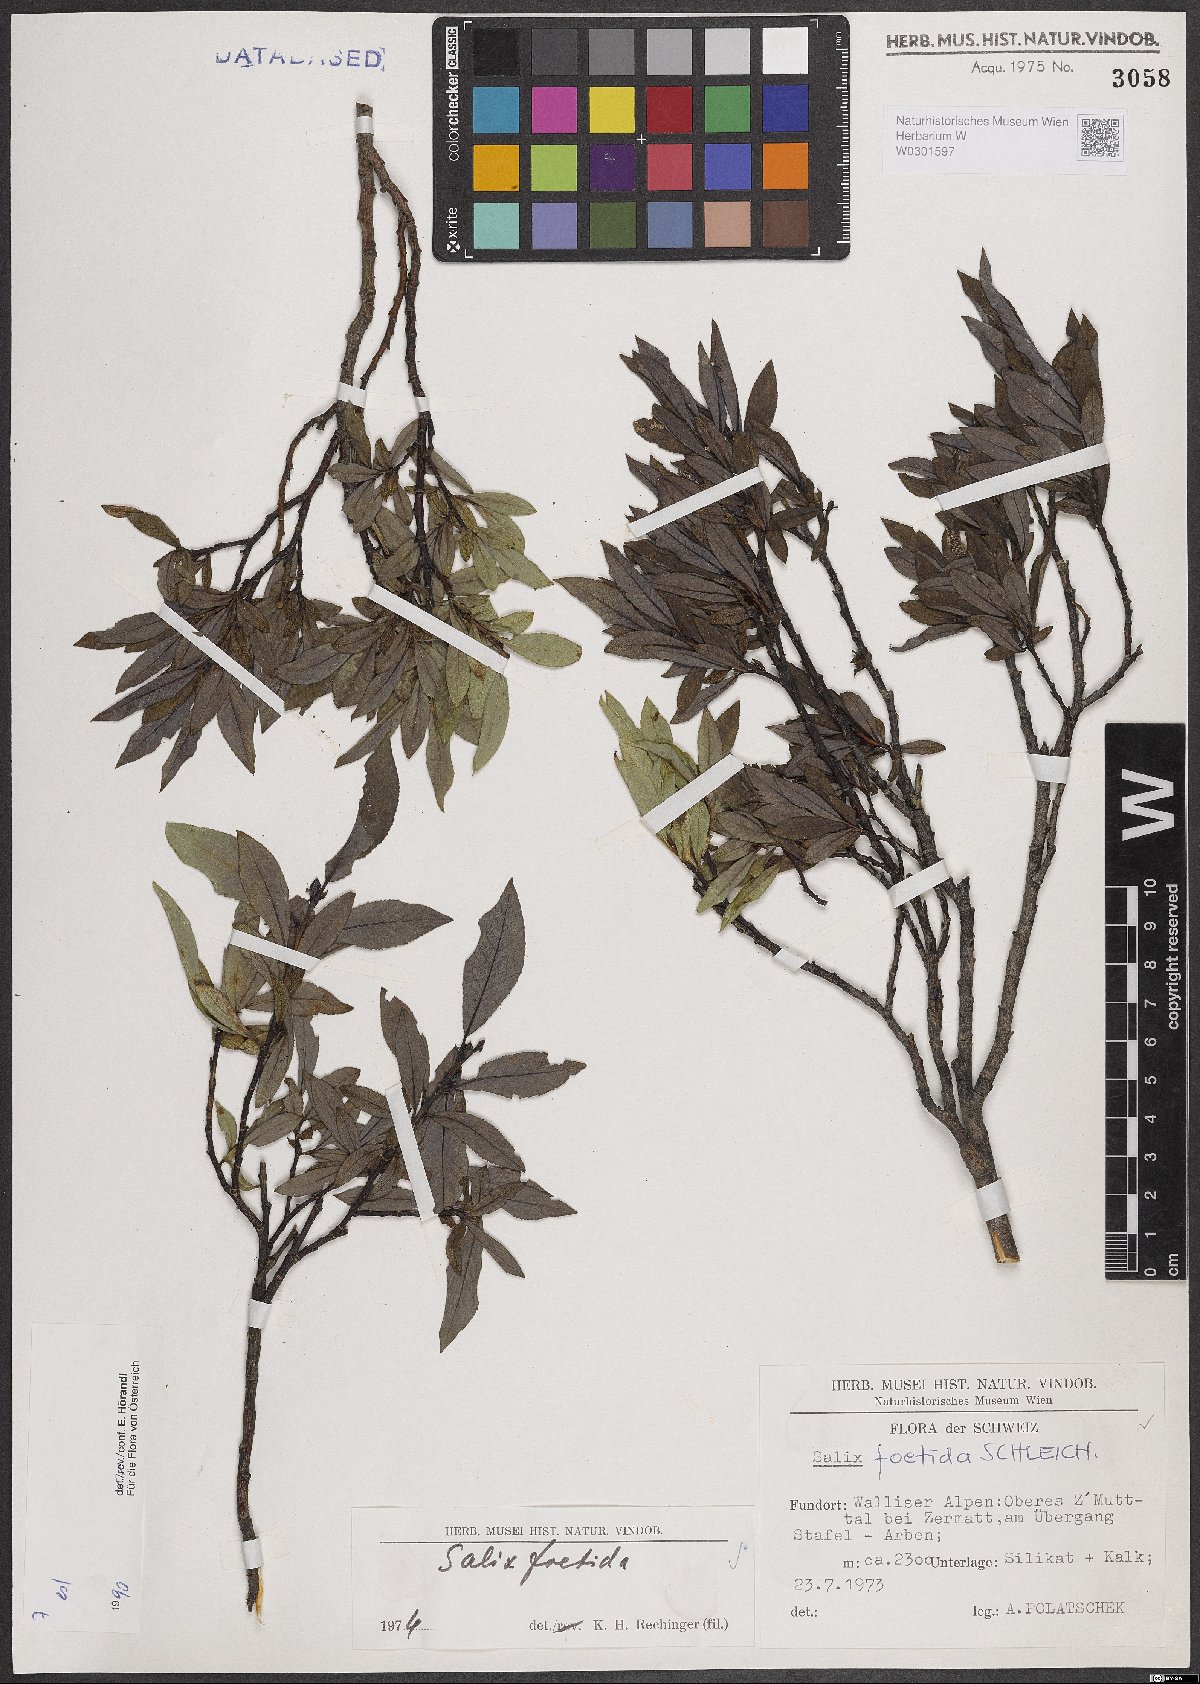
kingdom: Plantae
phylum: Tracheophyta
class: Magnoliopsida
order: Malpighiales
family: Salicaceae
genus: Salix
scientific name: Salix foetida
